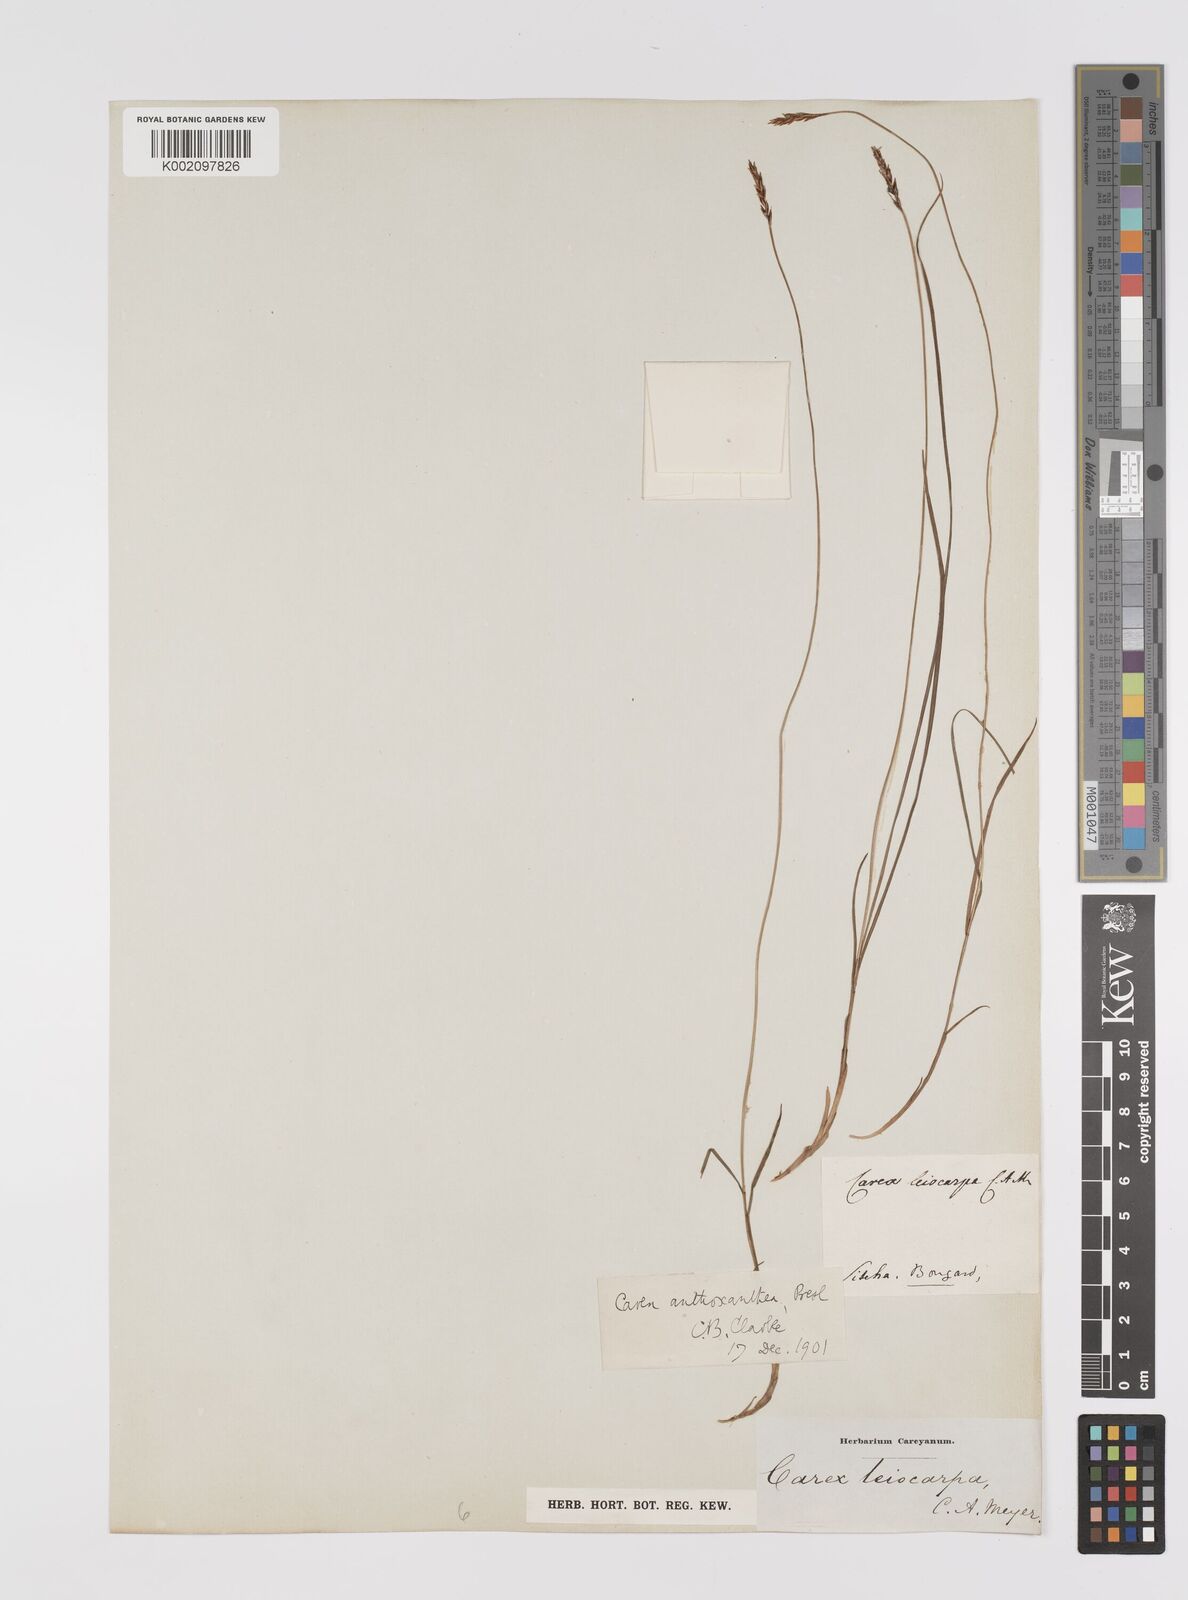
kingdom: Plantae
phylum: Tracheophyta
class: Liliopsida
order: Poales
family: Cyperaceae
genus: Carex
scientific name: Carex anthoxanthea
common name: Grassy-slope arctic sedge
